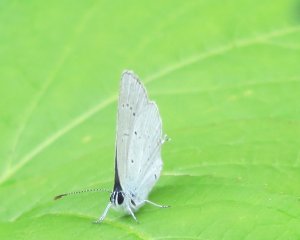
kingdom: Animalia
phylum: Arthropoda
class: Insecta
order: Lepidoptera
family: Lycaenidae
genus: Elkalyce
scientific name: Elkalyce amyntula
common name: Western Tailed-Blue
